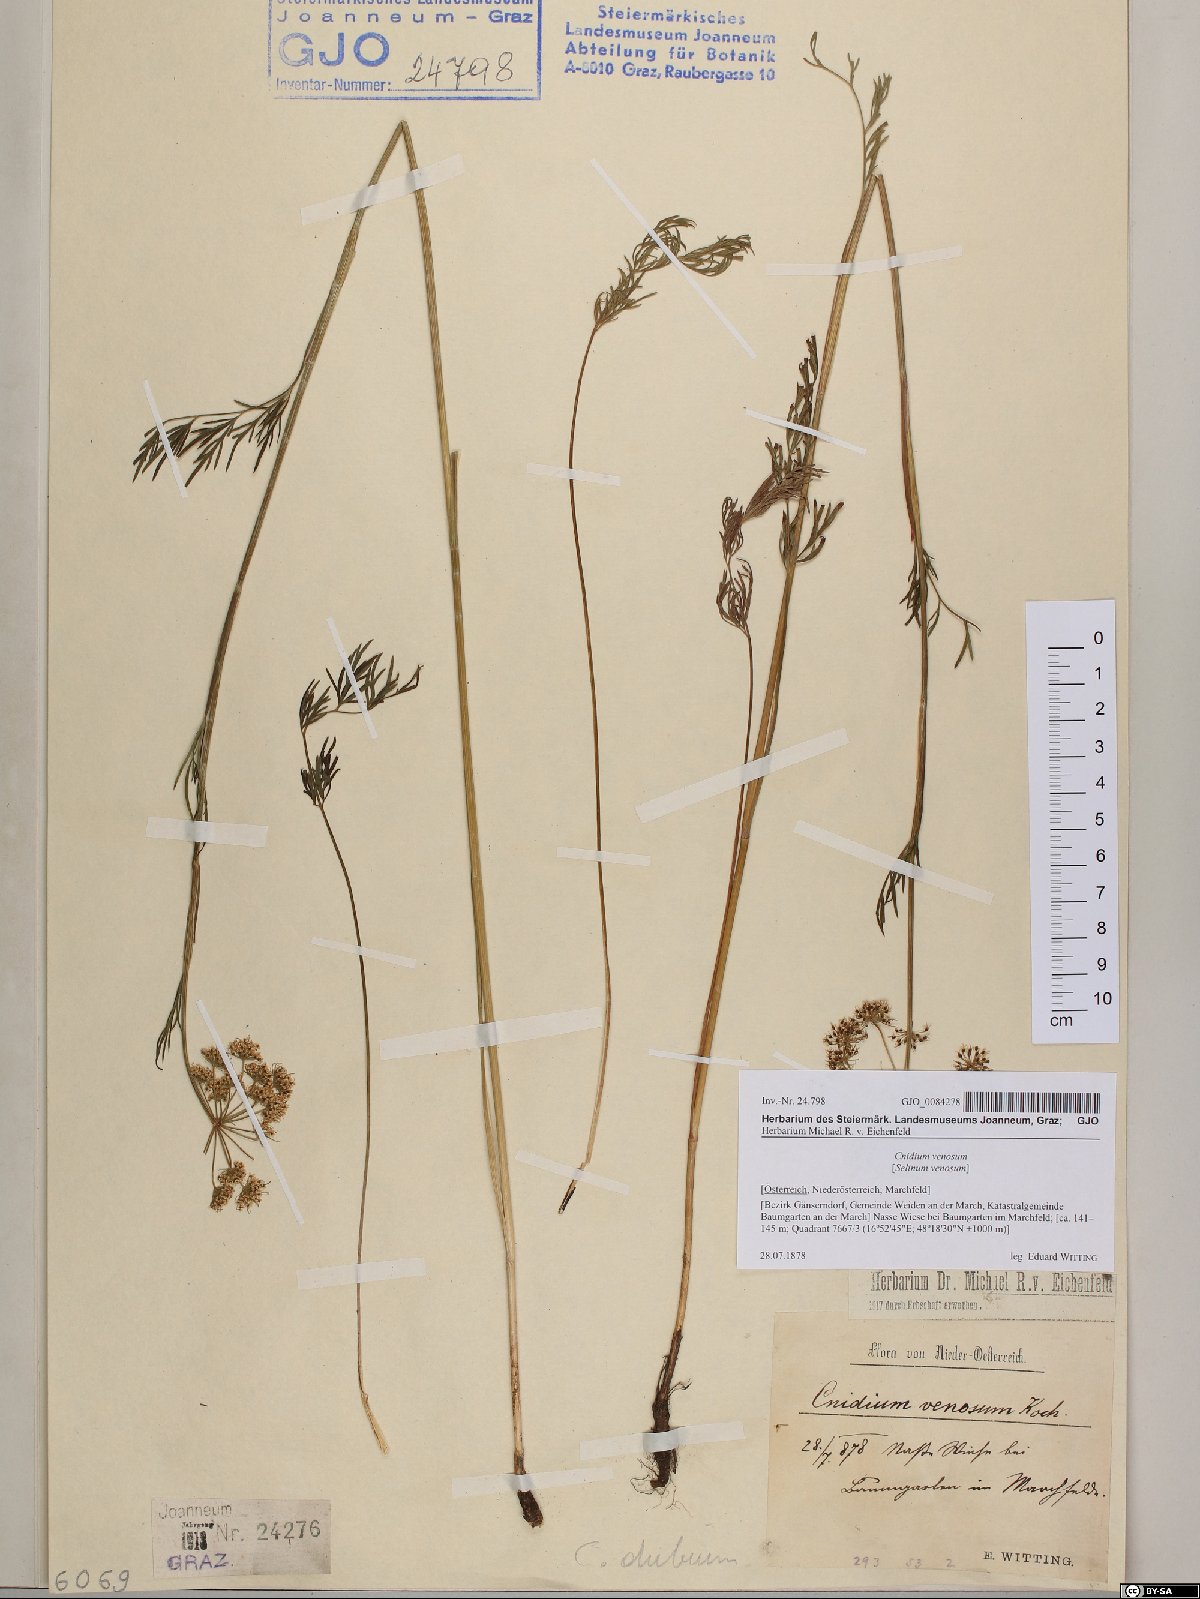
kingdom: Plantae
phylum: Tracheophyta
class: Magnoliopsida
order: Apiales
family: Apiaceae
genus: Kadenia
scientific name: Kadenia dubia
